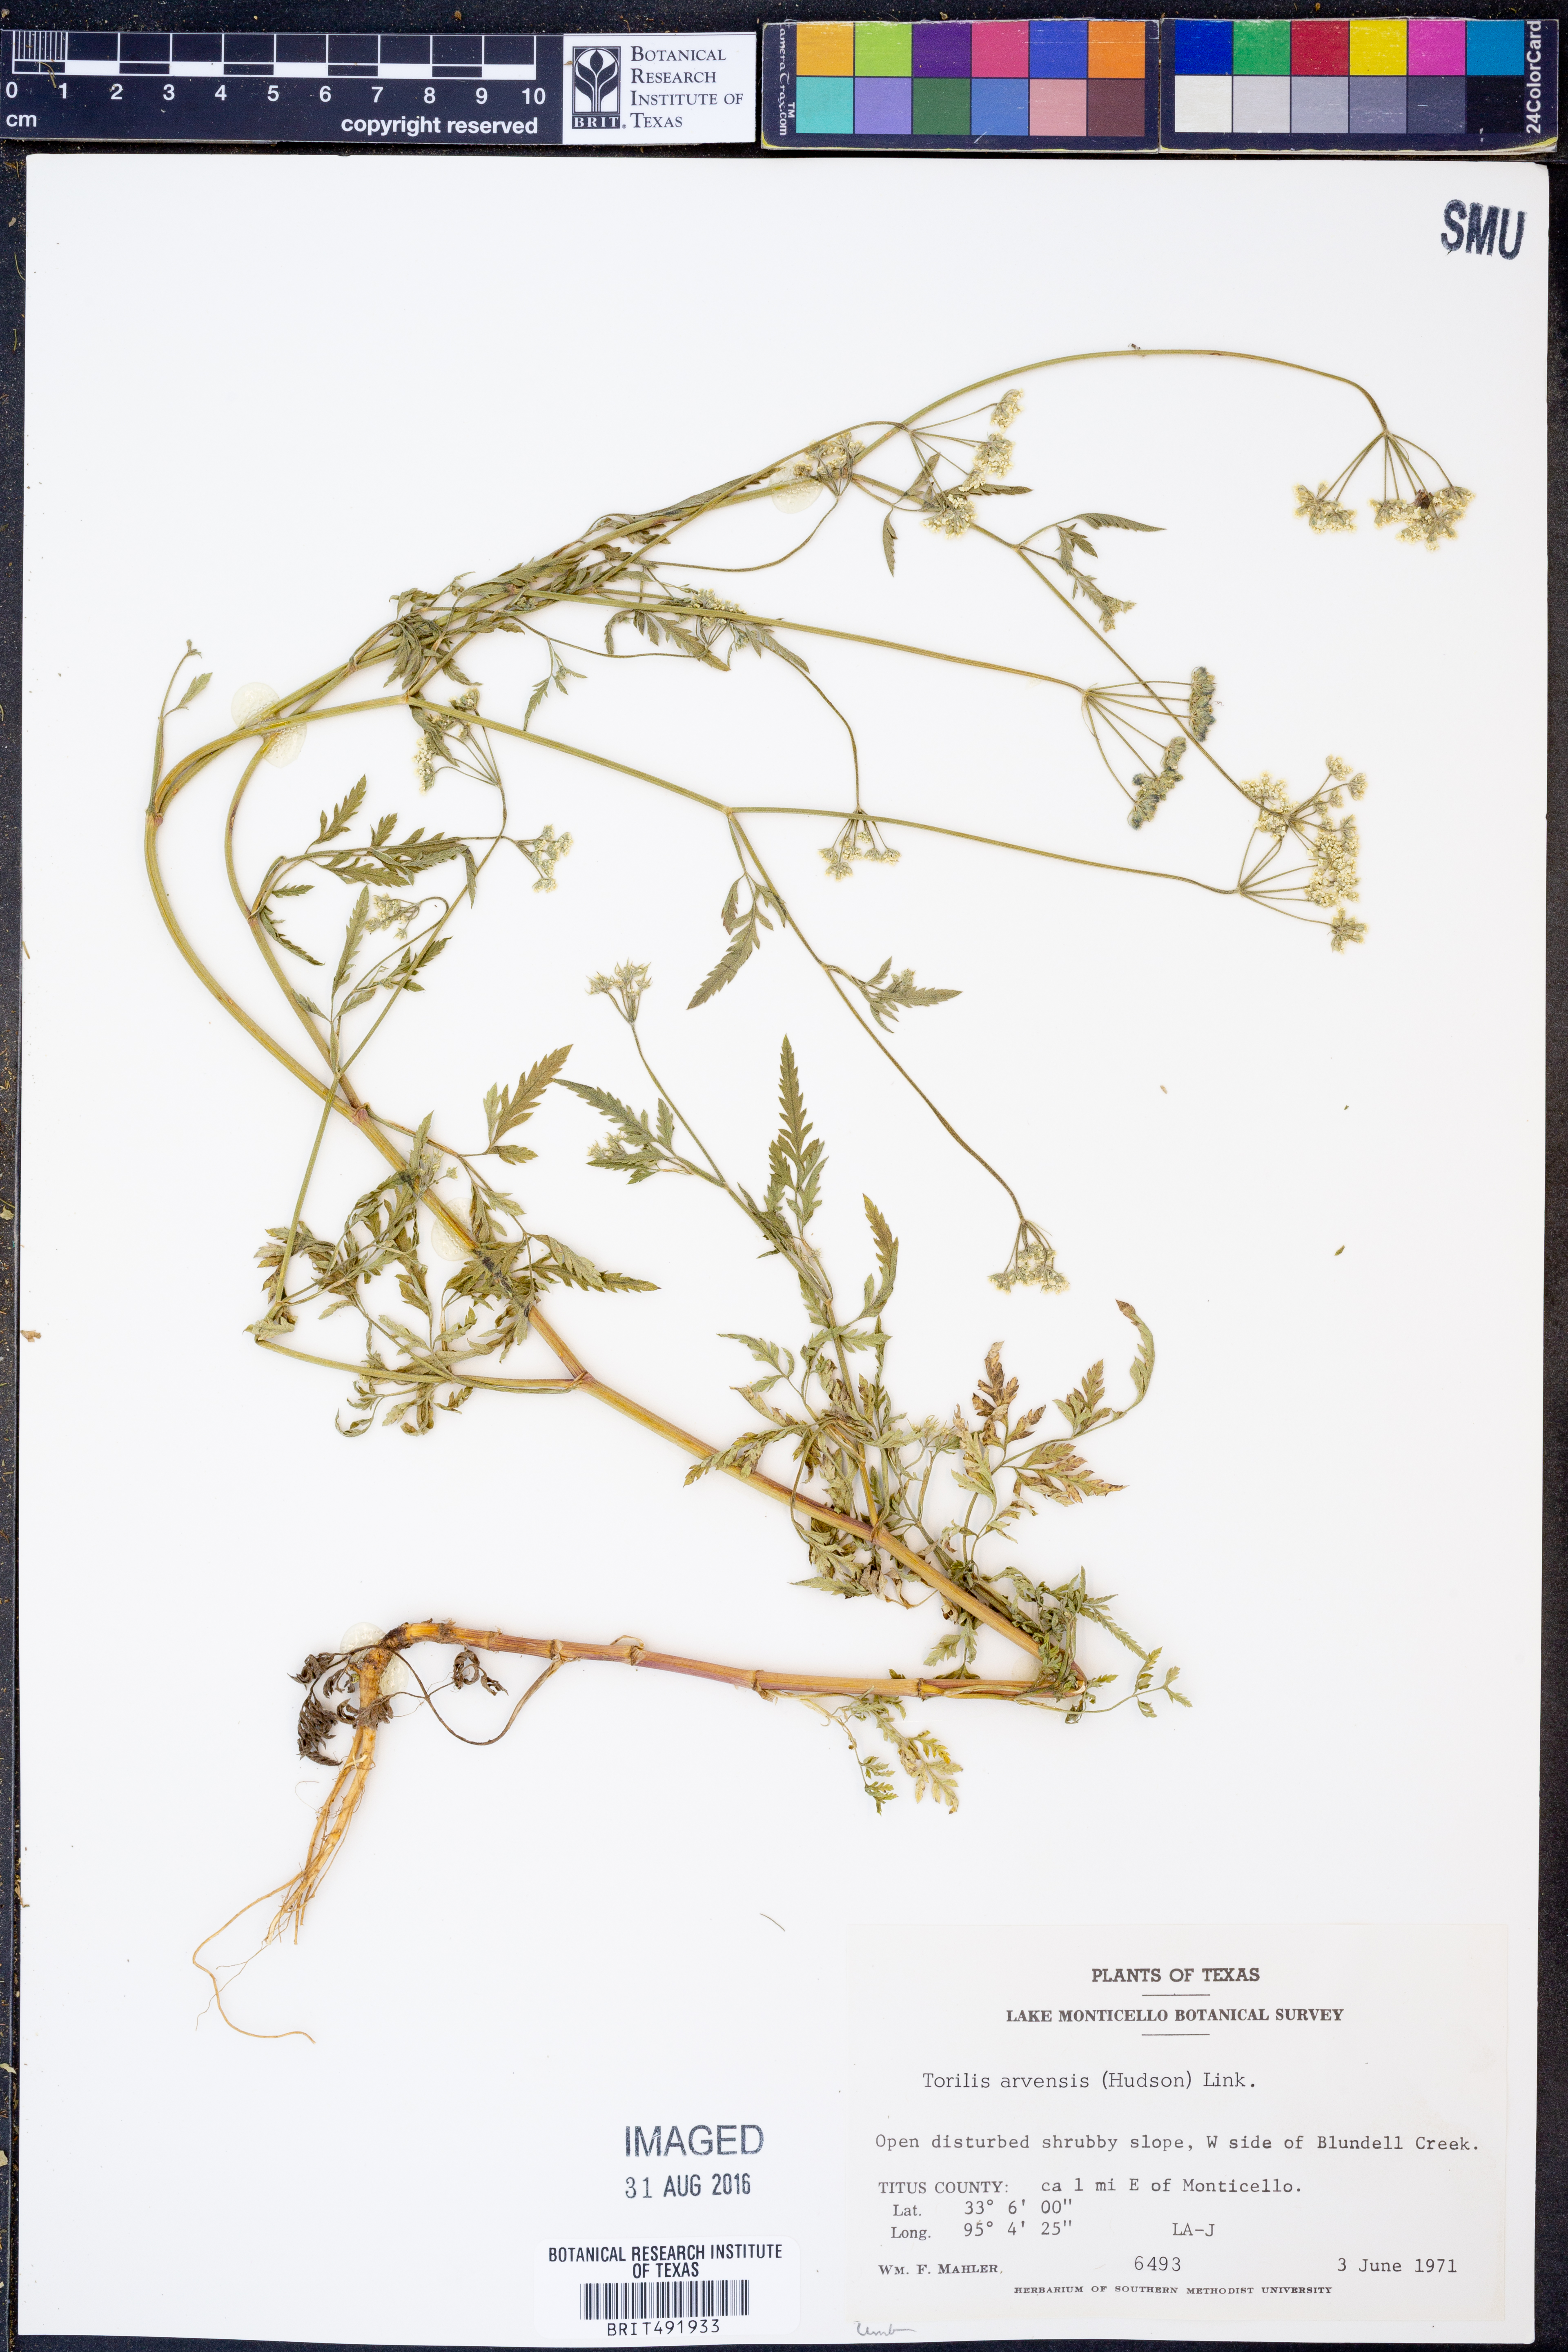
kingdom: Plantae
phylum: Tracheophyta
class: Magnoliopsida
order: Apiales
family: Apiaceae
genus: Torilis
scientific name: Torilis arvensis
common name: Spreading hedge-parsley
